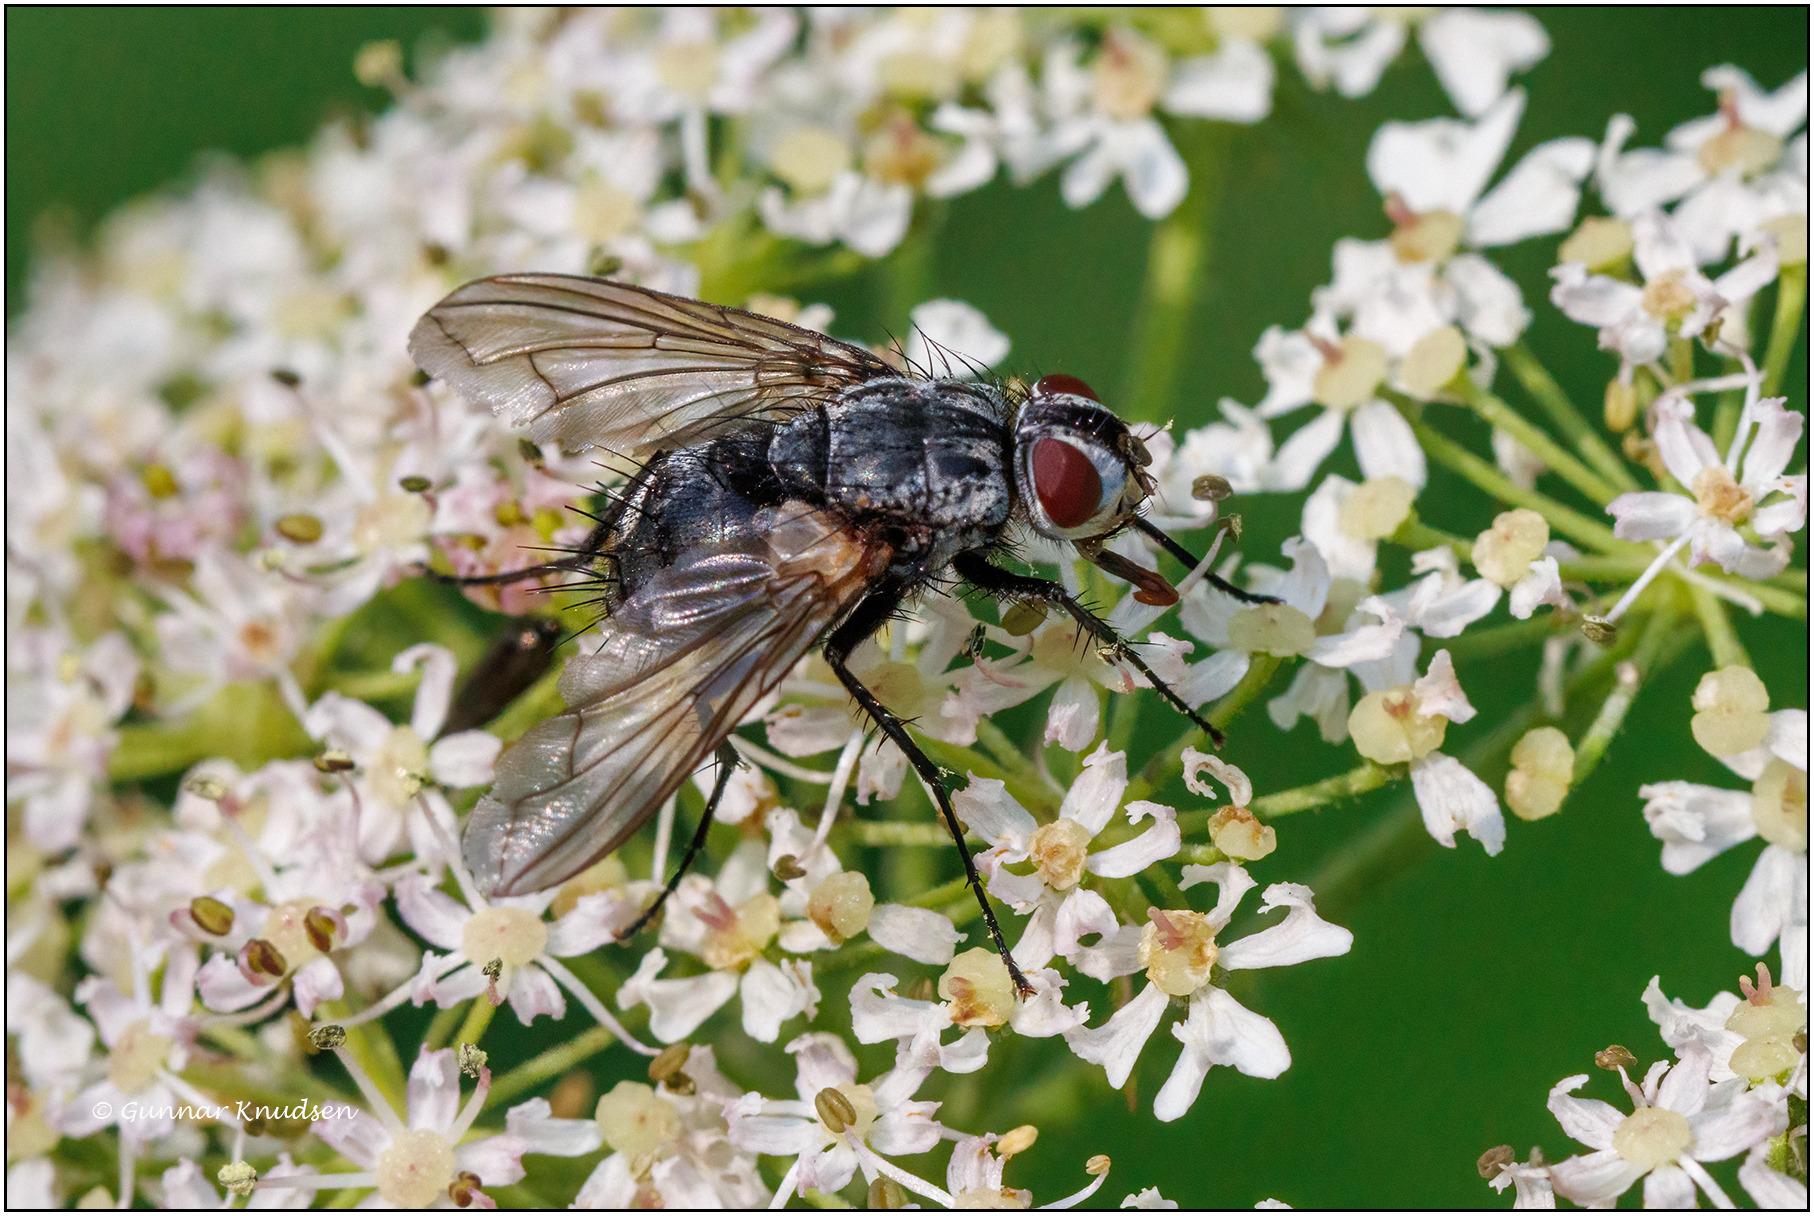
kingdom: Animalia
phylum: Arthropoda
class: Insecta
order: Diptera
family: Tachinidae
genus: Dinera
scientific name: Dinera ferina
